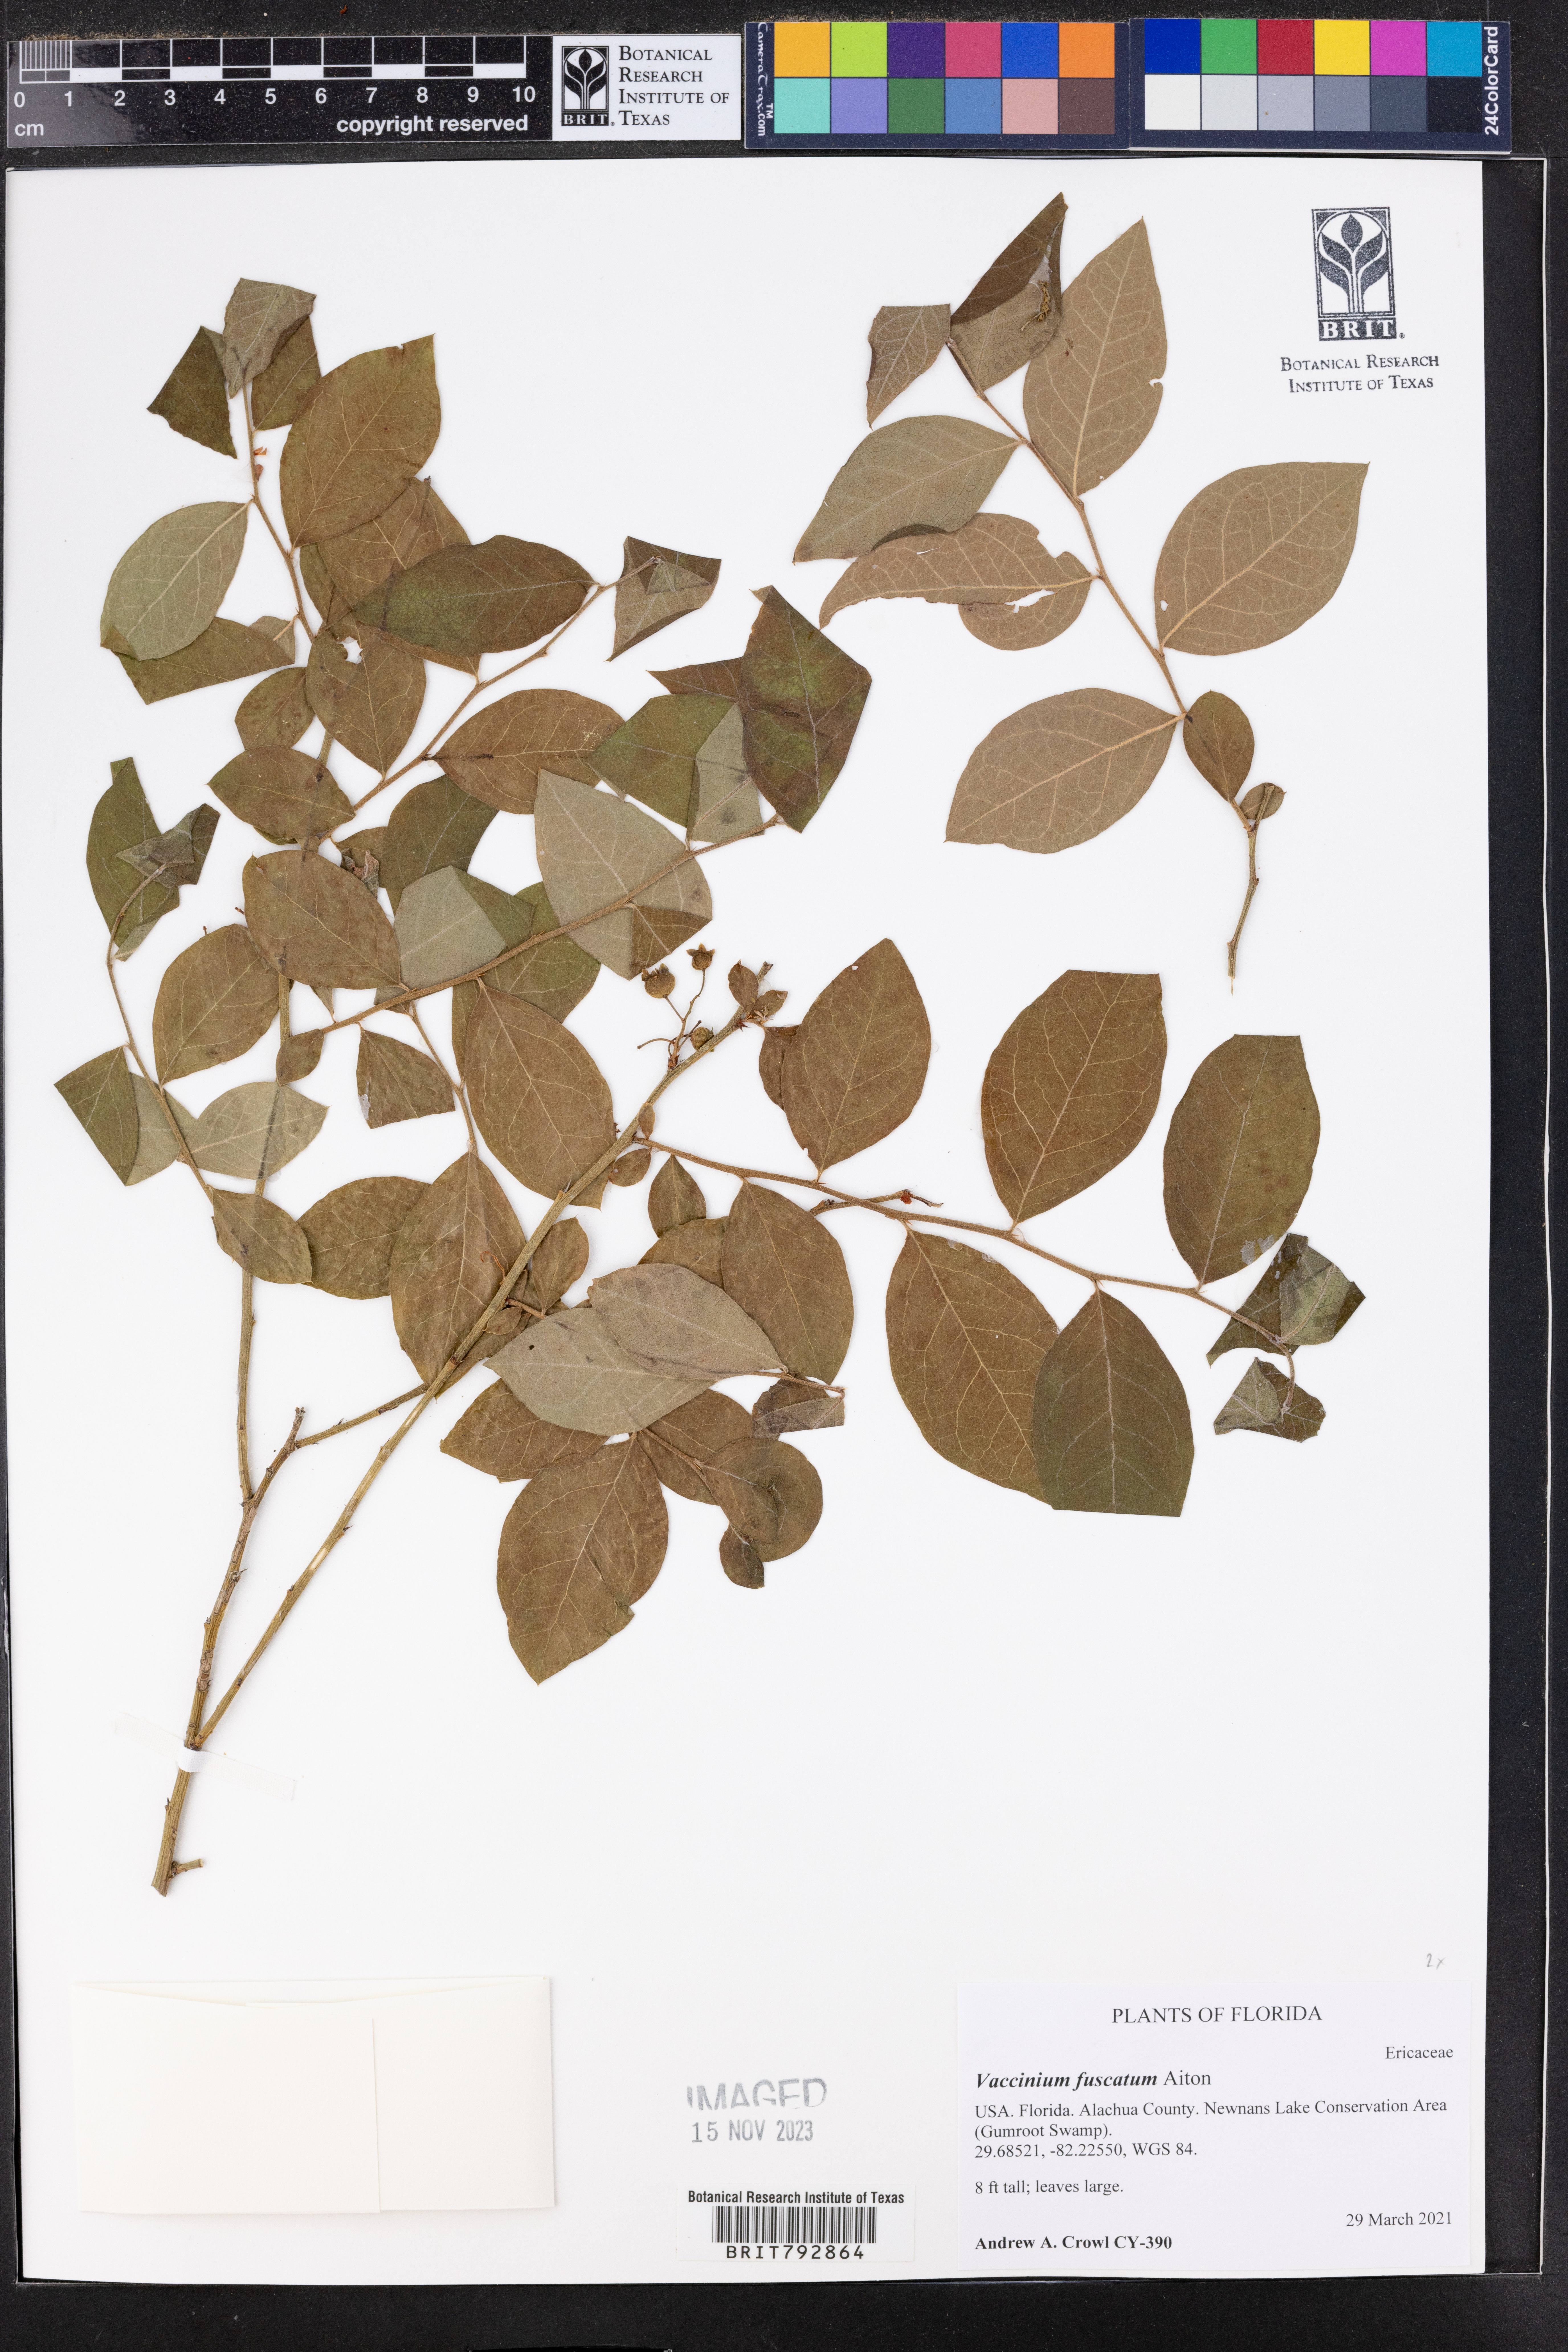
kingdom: Plantae
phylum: Tracheophyta
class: Magnoliopsida
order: Ericales
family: Ericaceae
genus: Vaccinium
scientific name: Vaccinium corymbosum
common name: Blueberry
